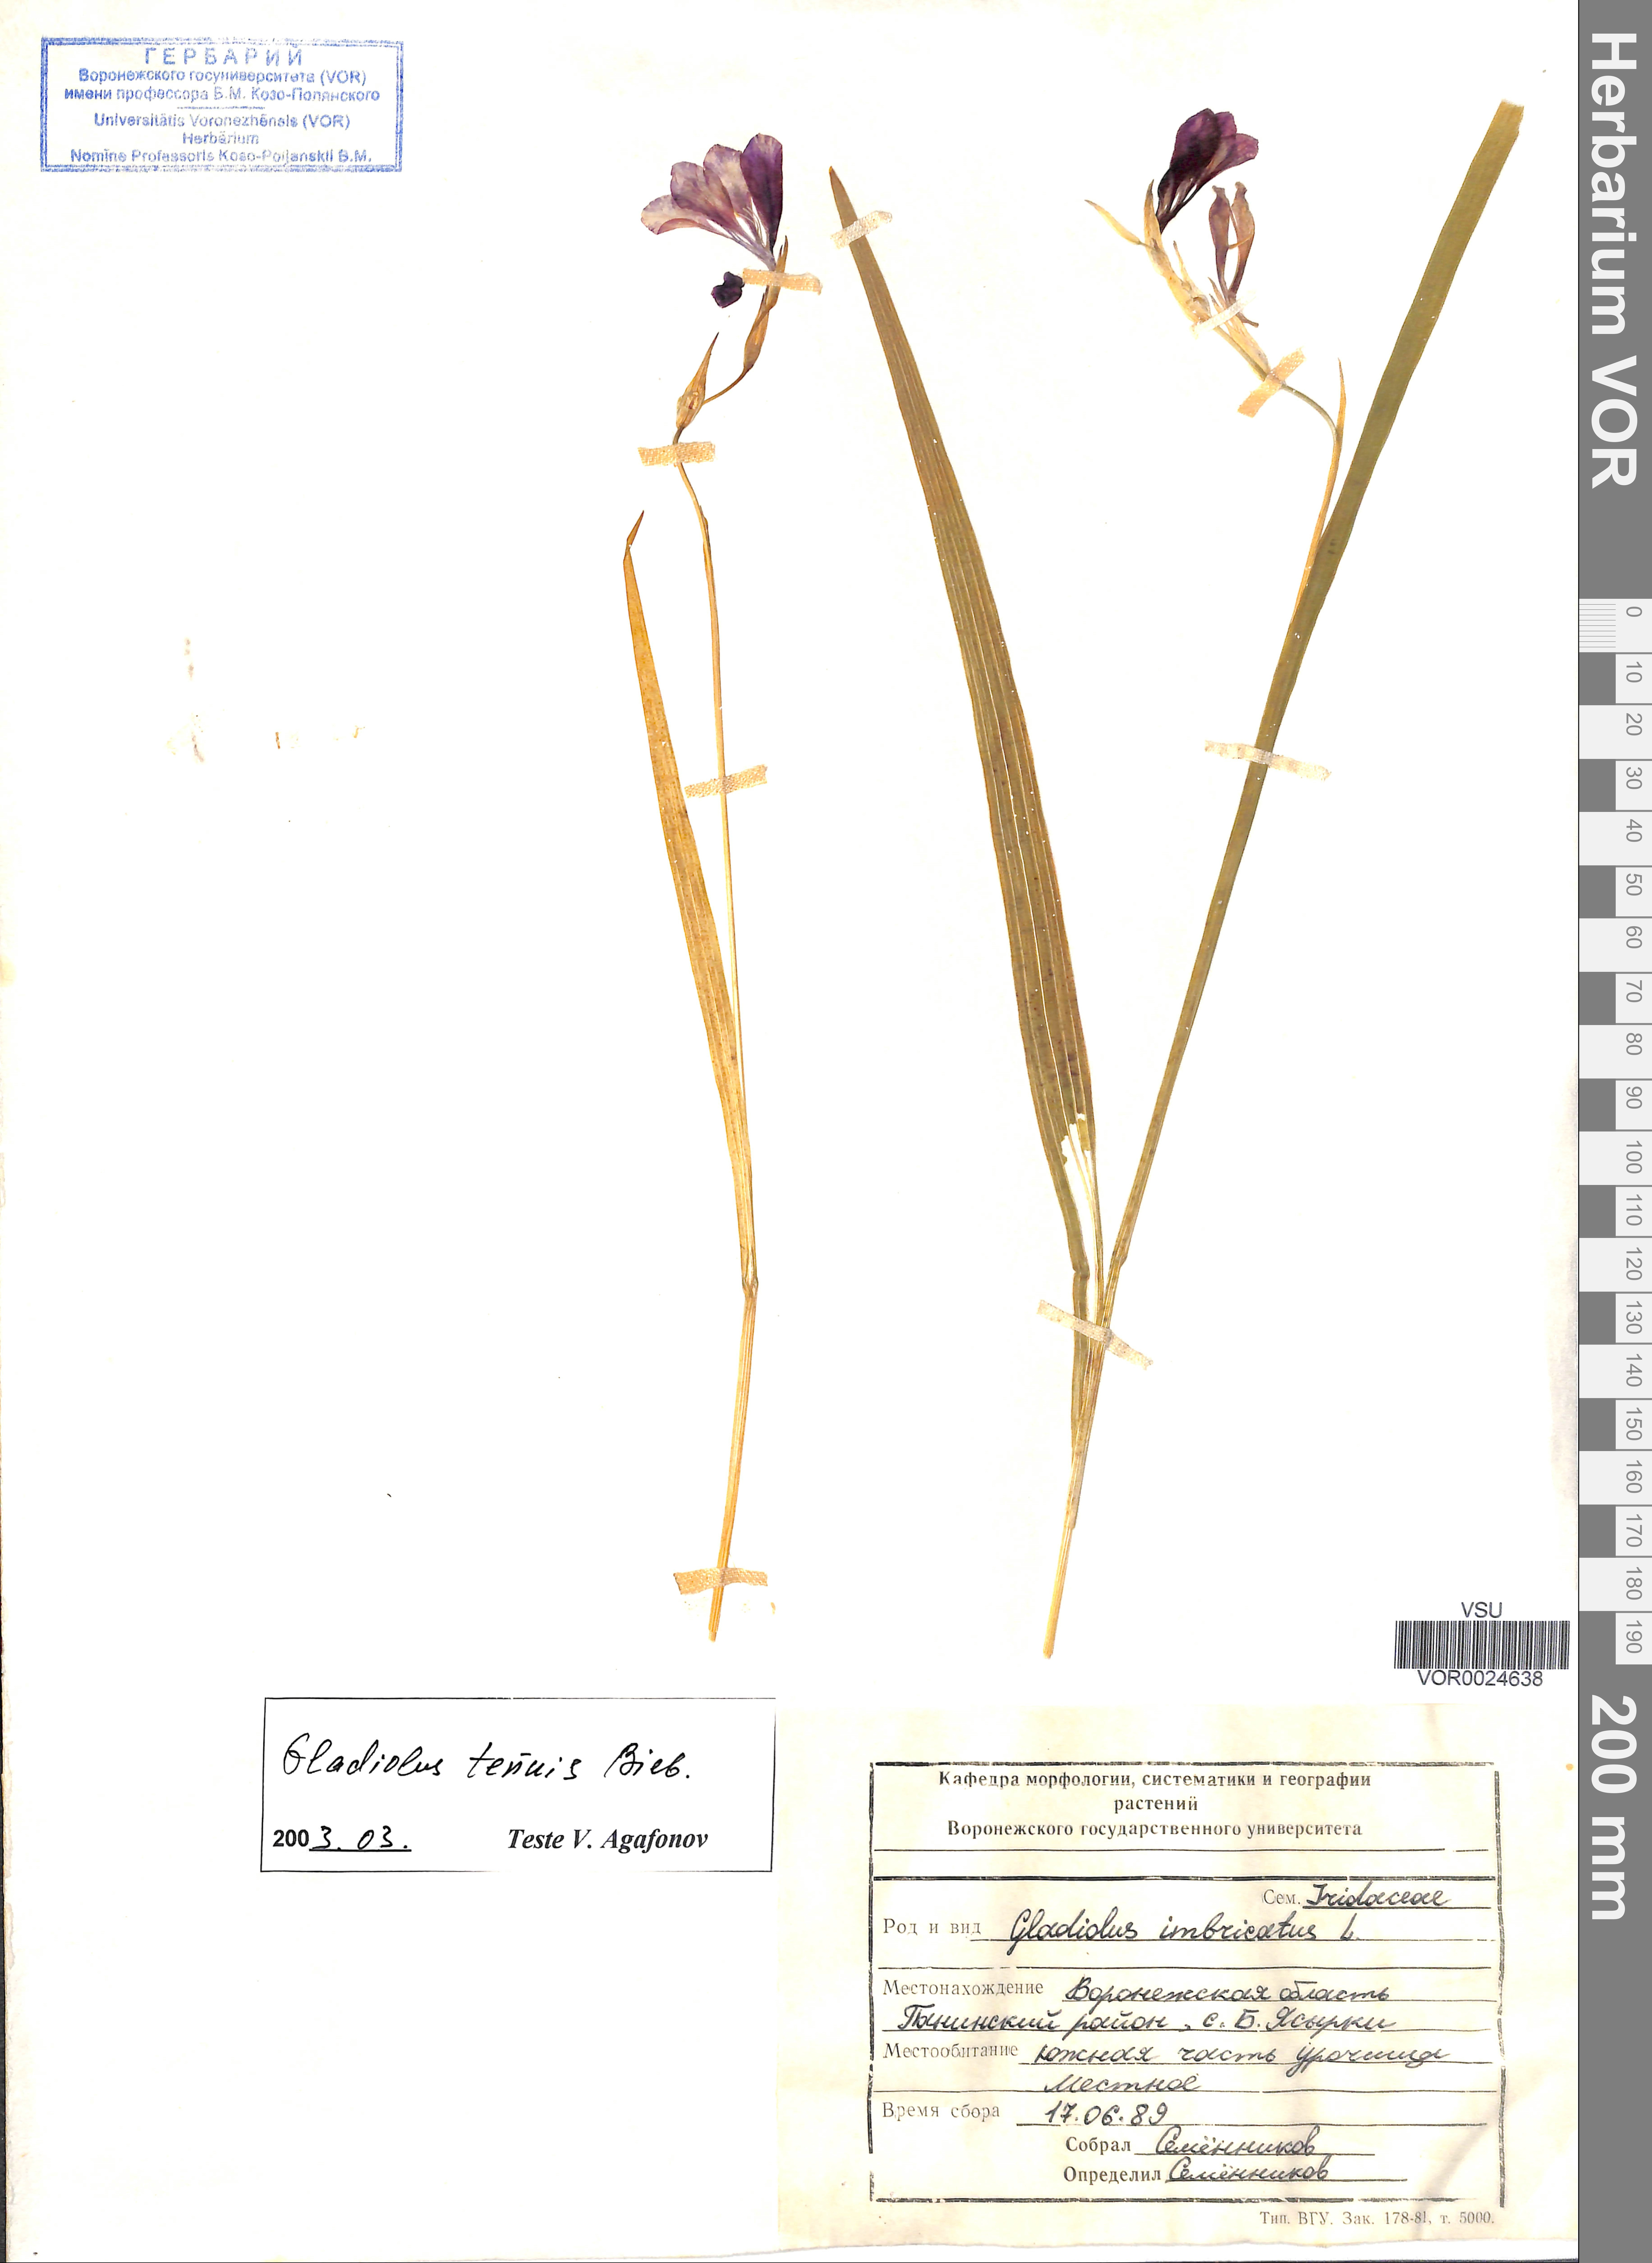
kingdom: Plantae
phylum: Tracheophyta
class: Liliopsida
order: Asparagales
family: Iridaceae
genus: Gladiolus
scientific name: Gladiolus tenuis
